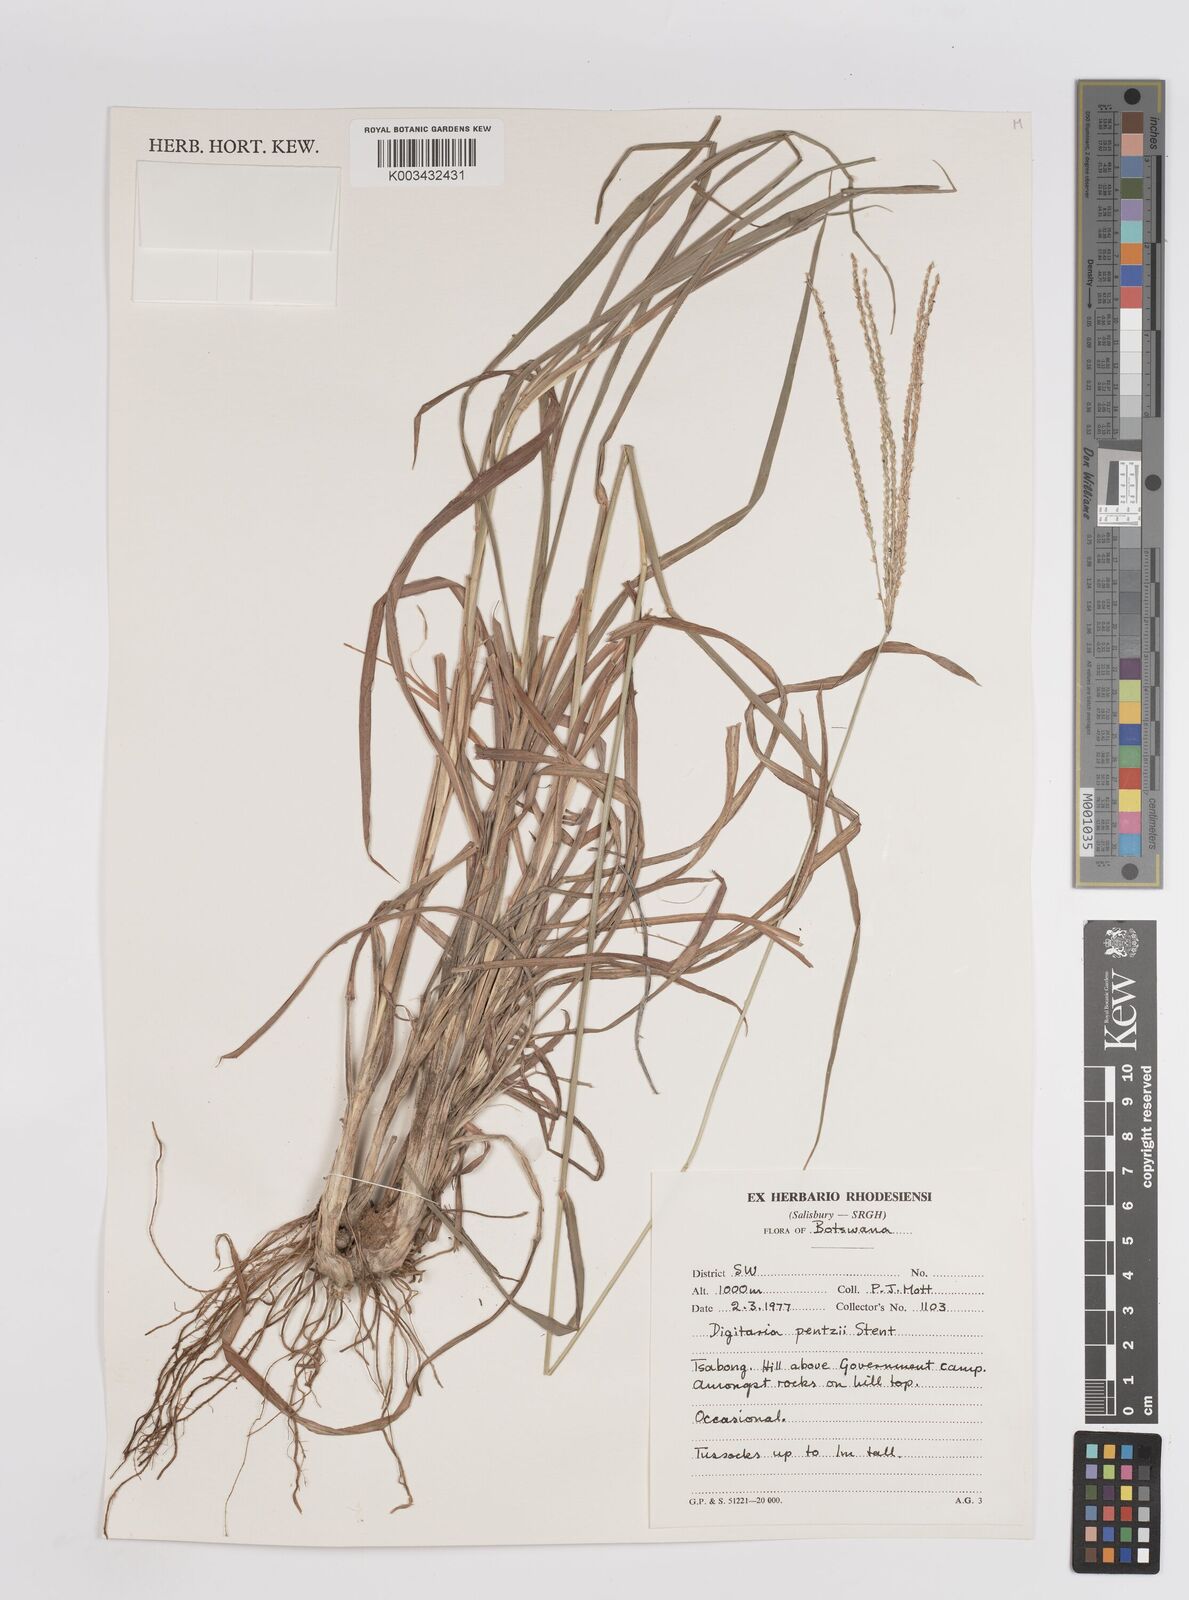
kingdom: Plantae
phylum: Tracheophyta
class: Liliopsida
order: Poales
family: Poaceae
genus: Digitaria
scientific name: Digitaria eriantha
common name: Digitgrass
